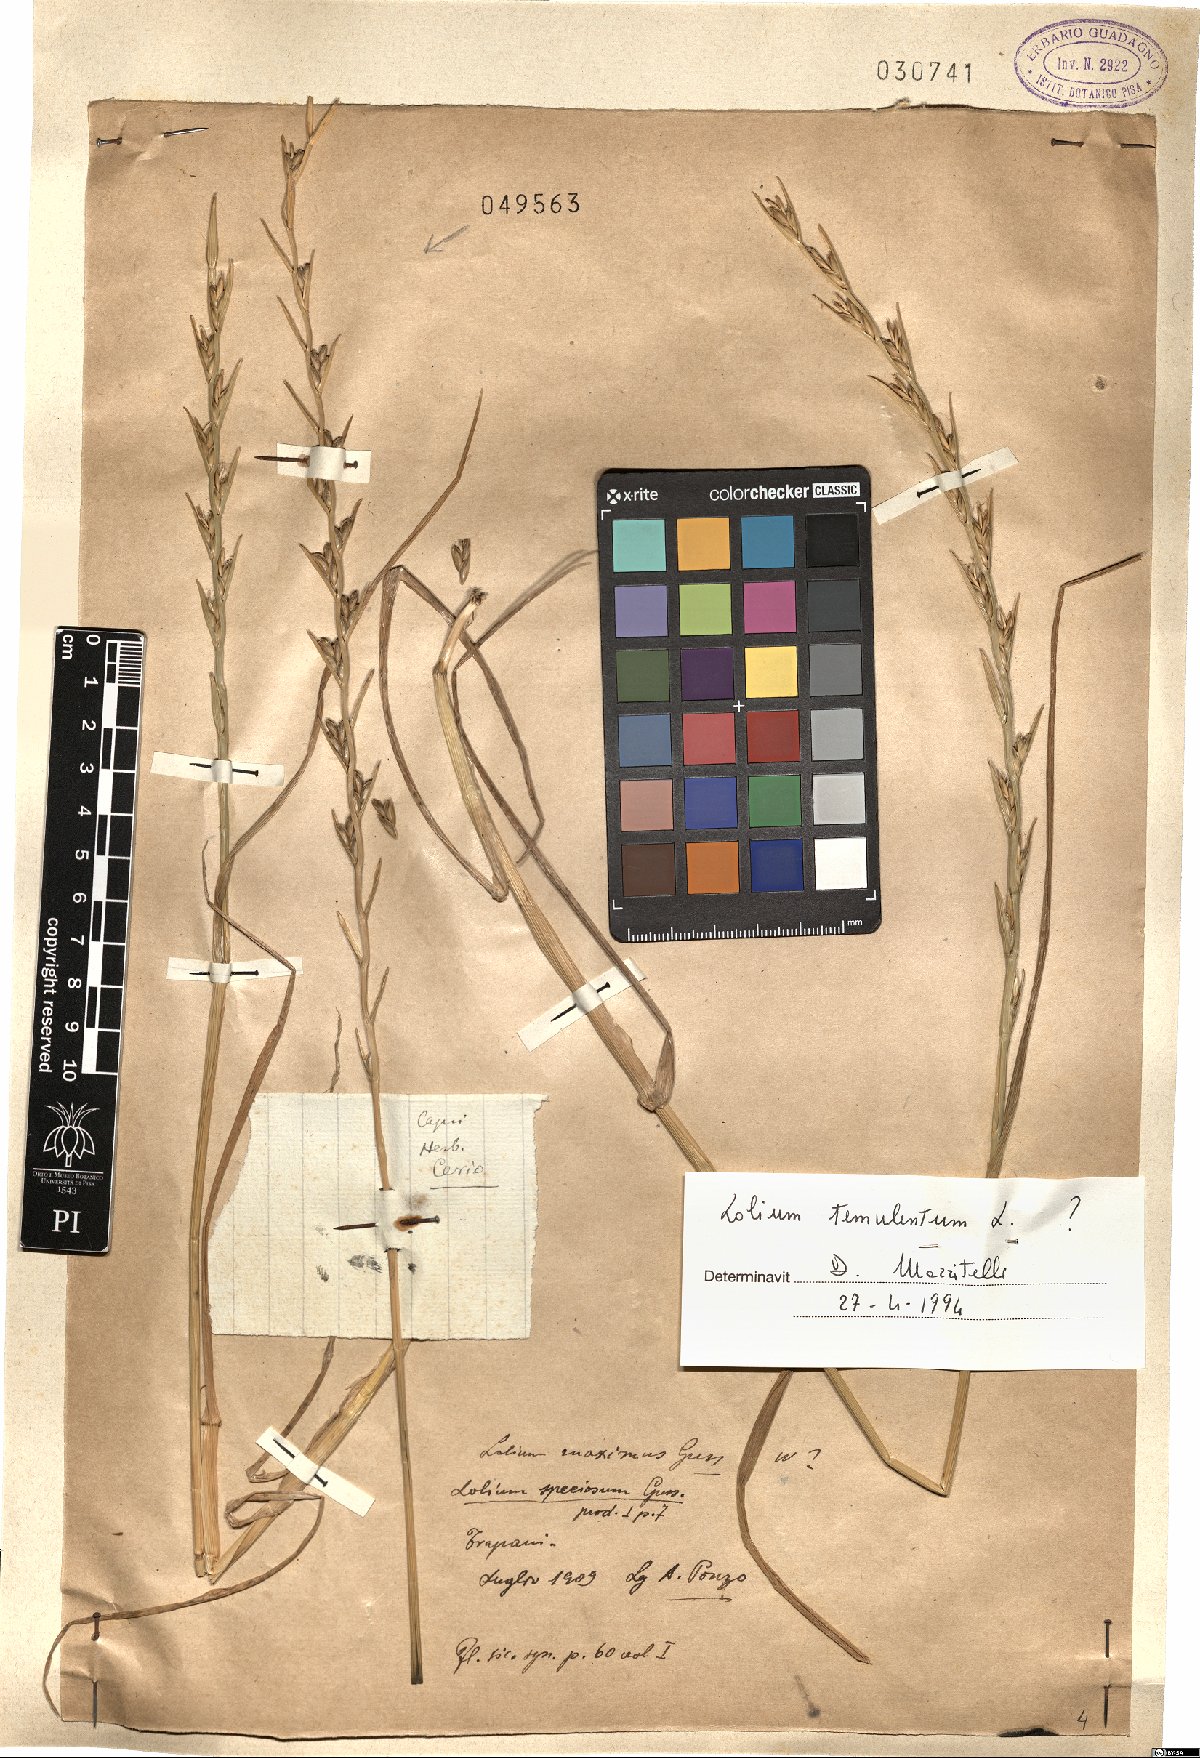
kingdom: Plantae
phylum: Tracheophyta
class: Liliopsida
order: Poales
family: Poaceae
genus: Lolium
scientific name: Lolium
